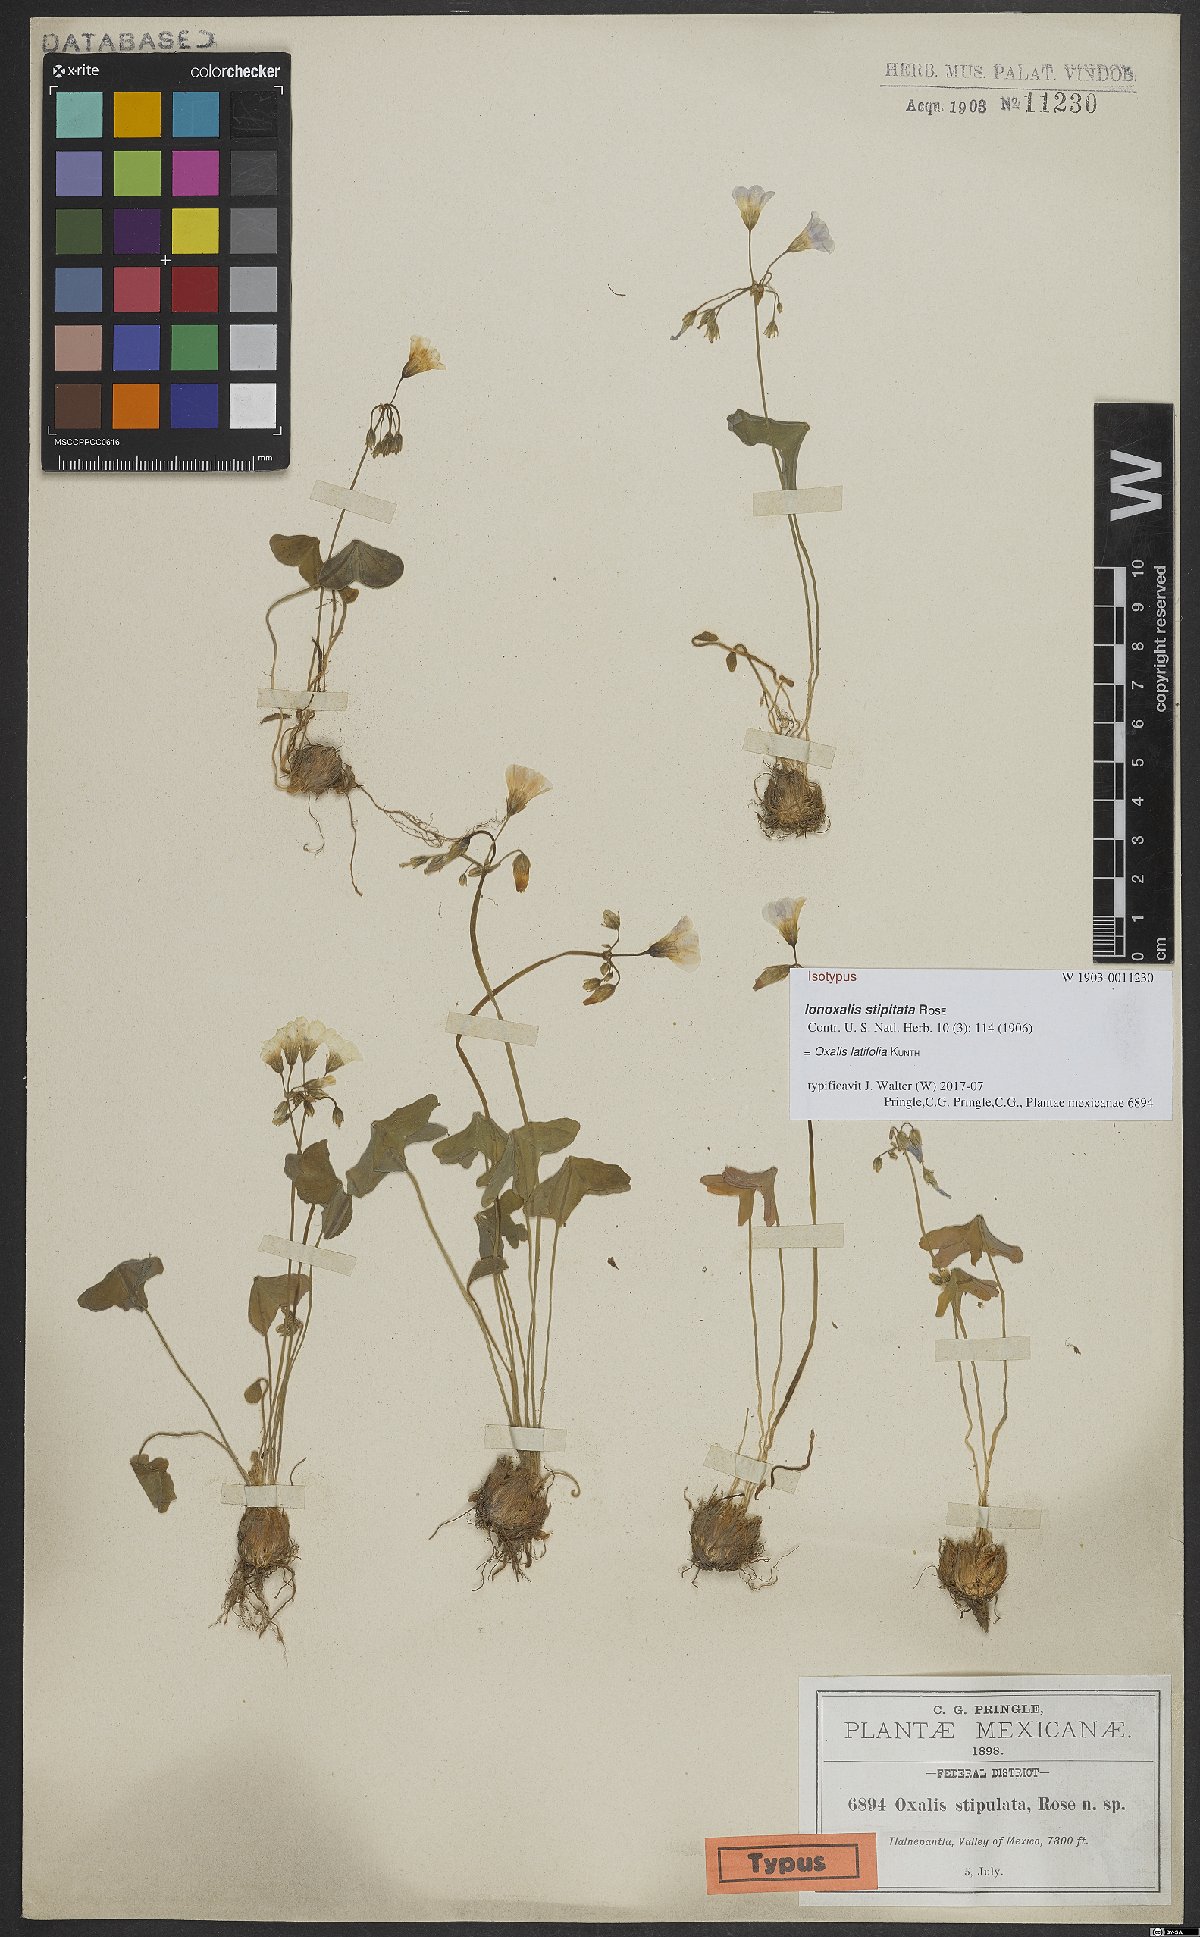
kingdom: Plantae
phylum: Tracheophyta
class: Magnoliopsida
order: Oxalidales
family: Oxalidaceae
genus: Oxalis
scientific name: Oxalis latifolia
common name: Garden pink-sorrel
